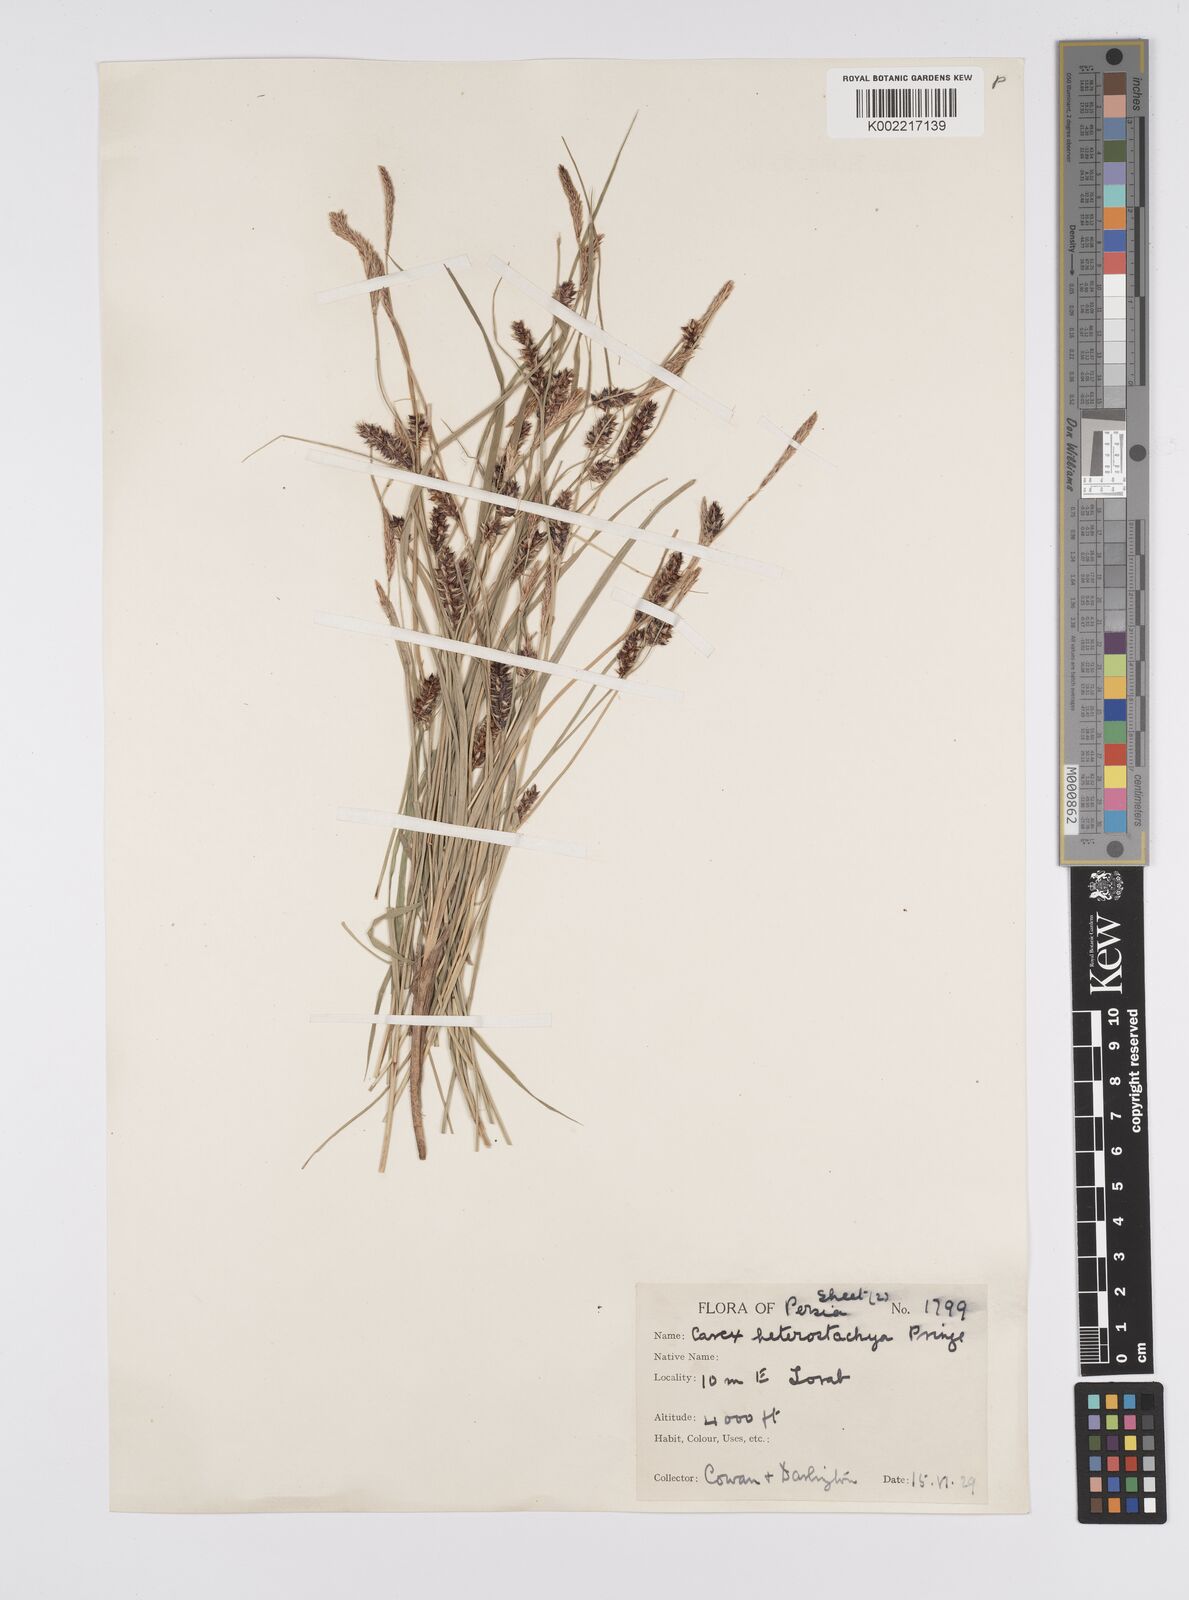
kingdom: Plantae
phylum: Tracheophyta
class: Liliopsida
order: Poales
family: Cyperaceae
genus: Carex
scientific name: Carex heterostachya
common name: Different-spike sedge
